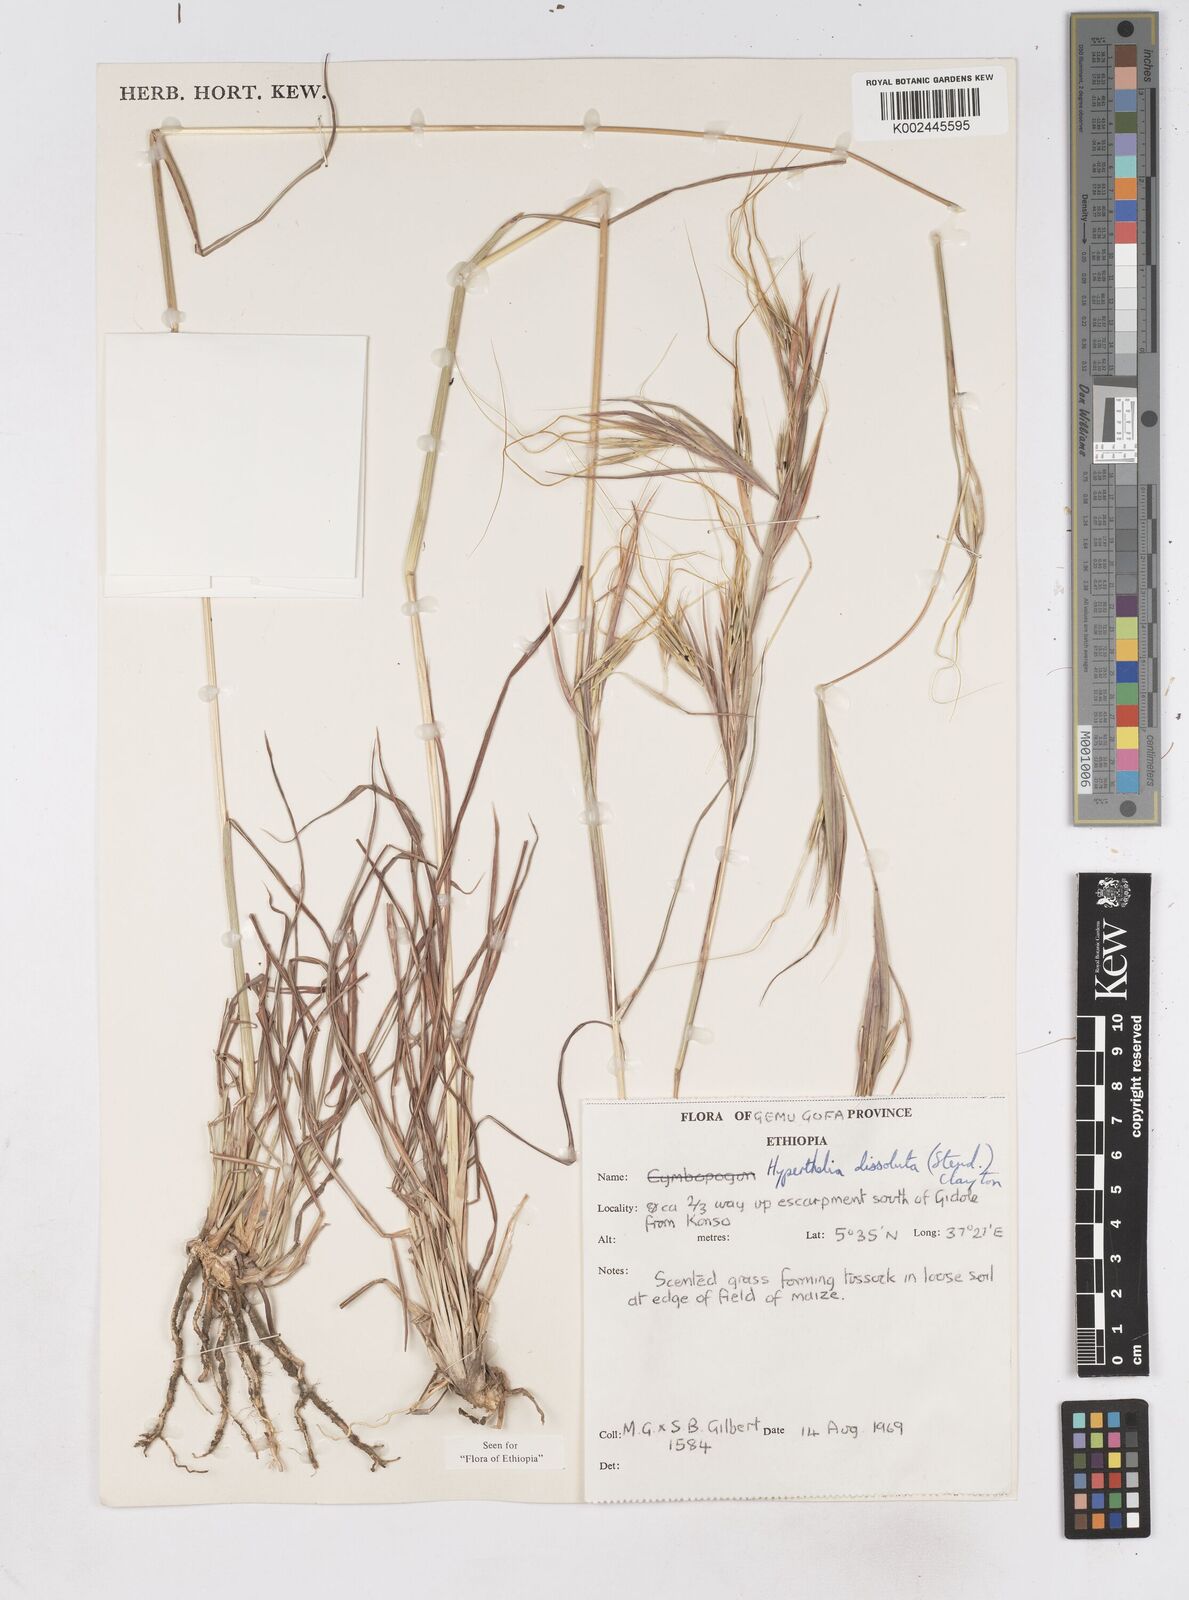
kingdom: Plantae
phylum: Tracheophyta
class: Liliopsida
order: Poales
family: Poaceae
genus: Hyperthelia
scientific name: Hyperthelia dissoluta
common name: Yellow thatching grass
